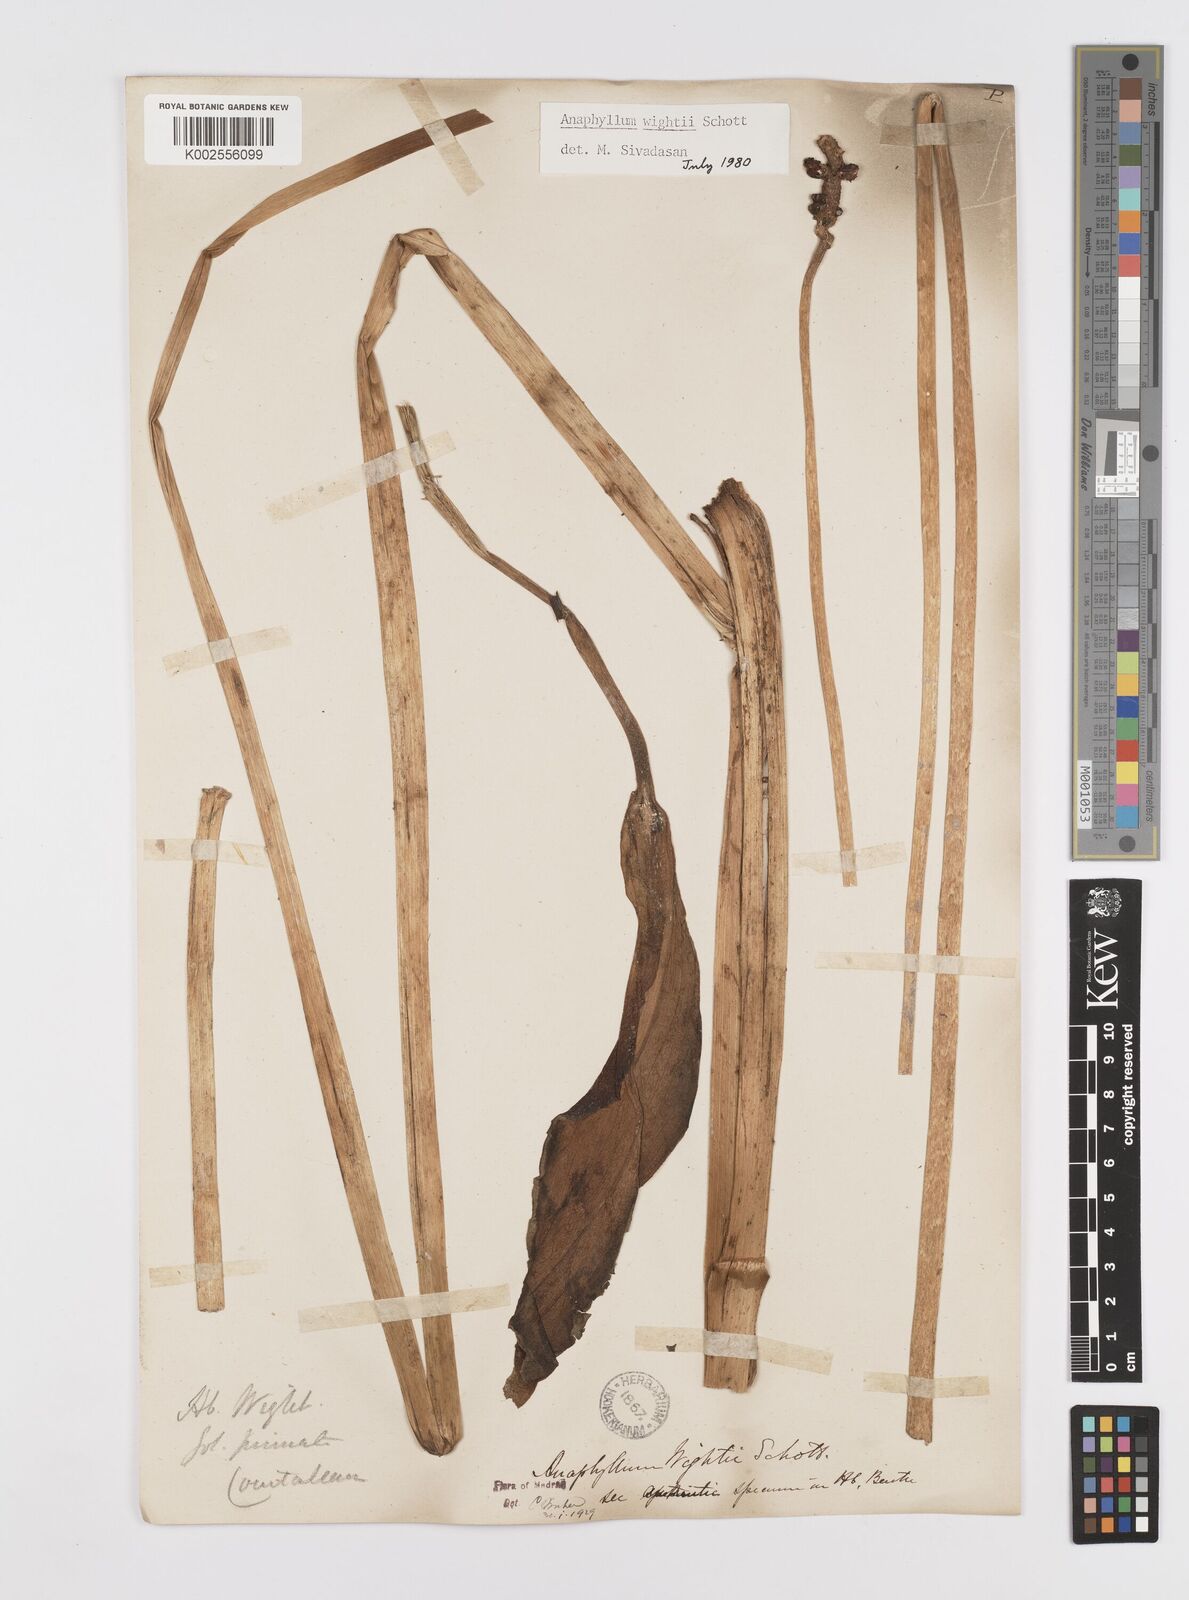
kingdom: Plantae
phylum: Tracheophyta
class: Liliopsida
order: Alismatales
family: Araceae
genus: Anaphyllum
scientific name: Anaphyllum wightii
